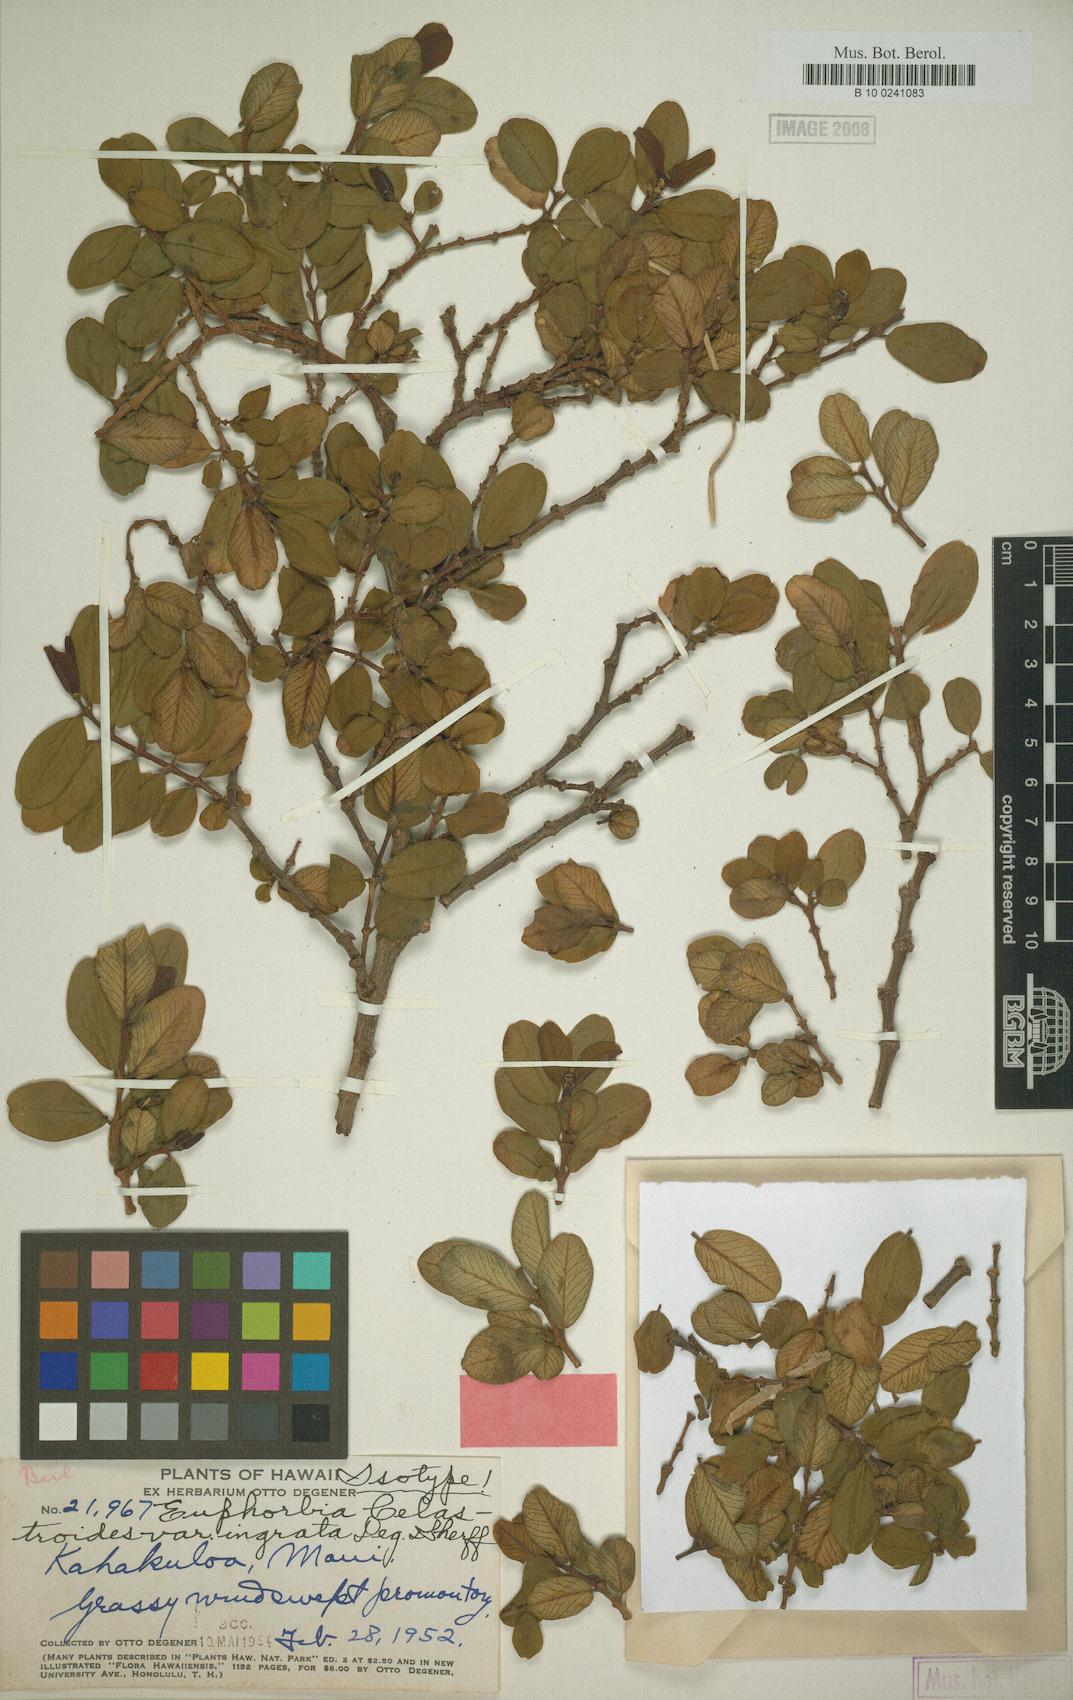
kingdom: Plantae
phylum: Tracheophyta
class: Magnoliopsida
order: Malpighiales
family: Euphorbiaceae
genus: Euphorbia
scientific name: Euphorbia celastroides
